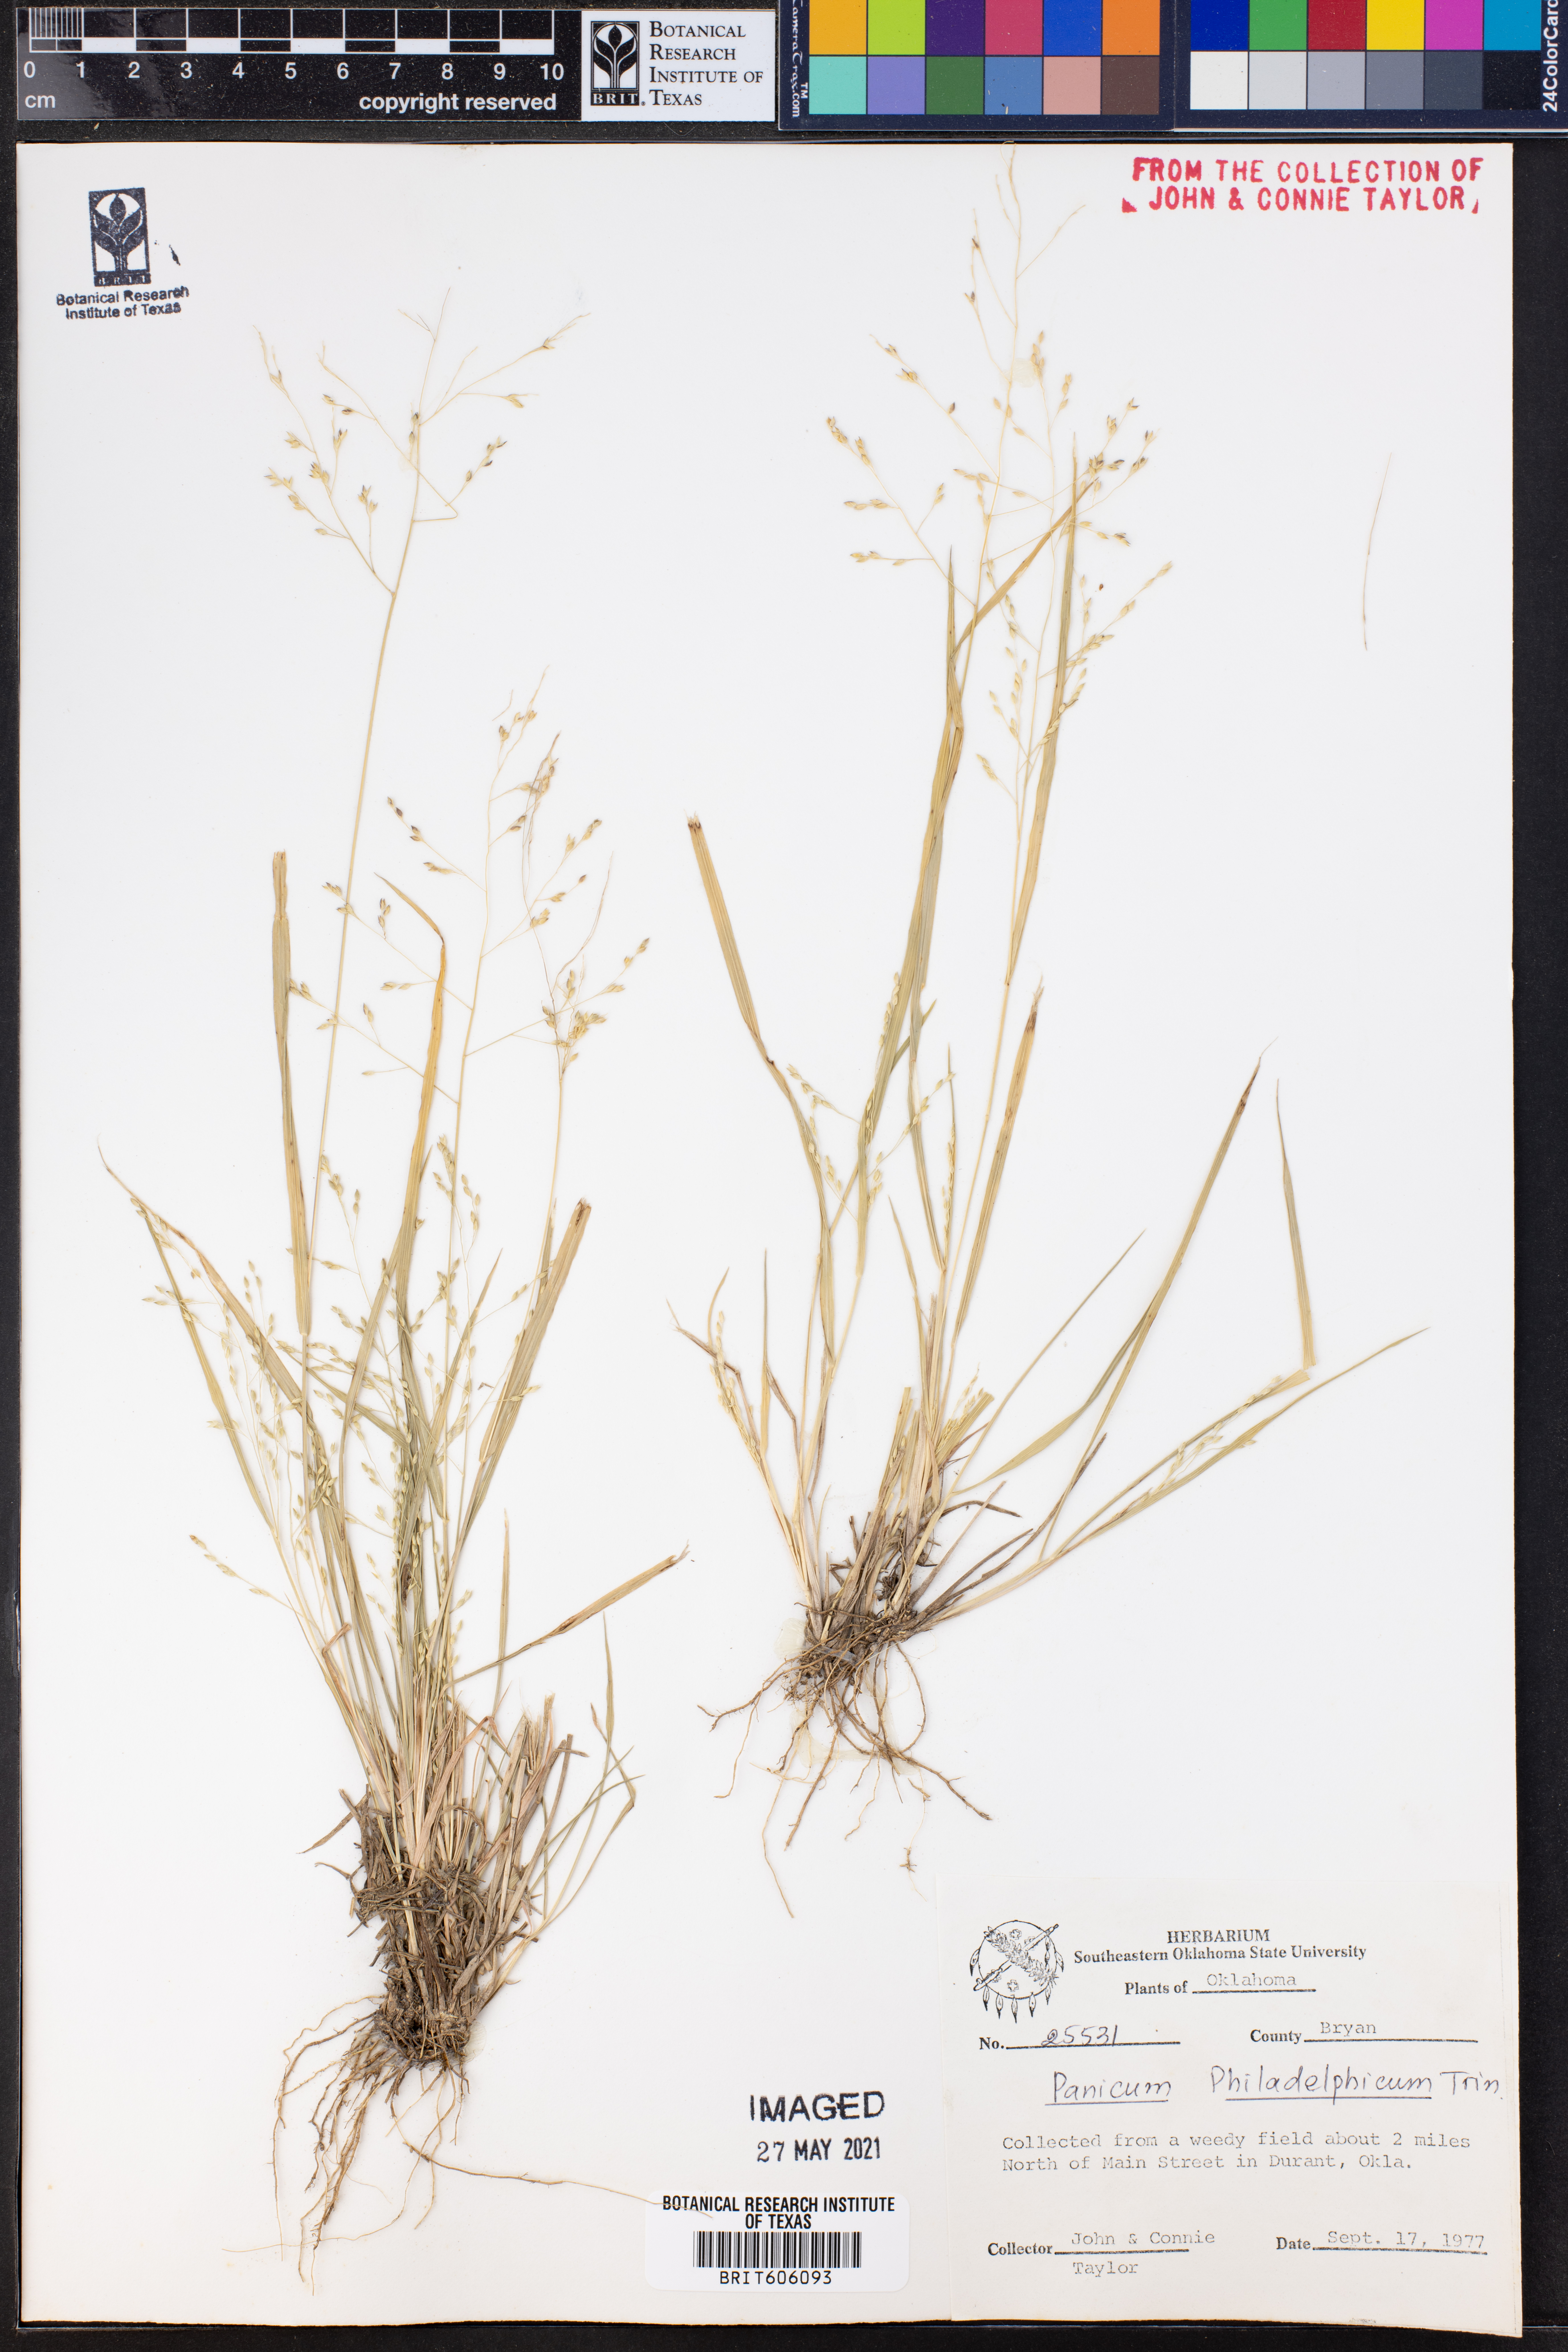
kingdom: Plantae
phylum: Tracheophyta
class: Liliopsida
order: Poales
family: Poaceae
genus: Panicum
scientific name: Panicum philadelphicum
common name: Philadelphia witchgrass
